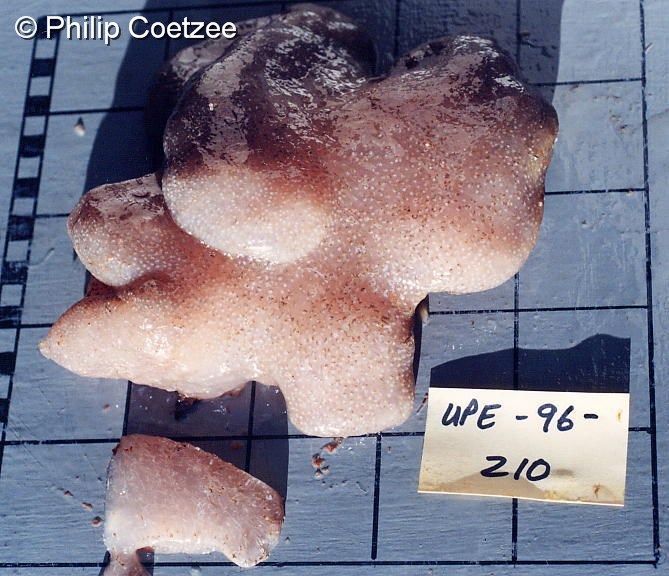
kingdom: Animalia
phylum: Chordata
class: Ascidiacea
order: Aplousobranchia
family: Pseudodistomidae
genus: Pseudodistoma
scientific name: Pseudodistoma
